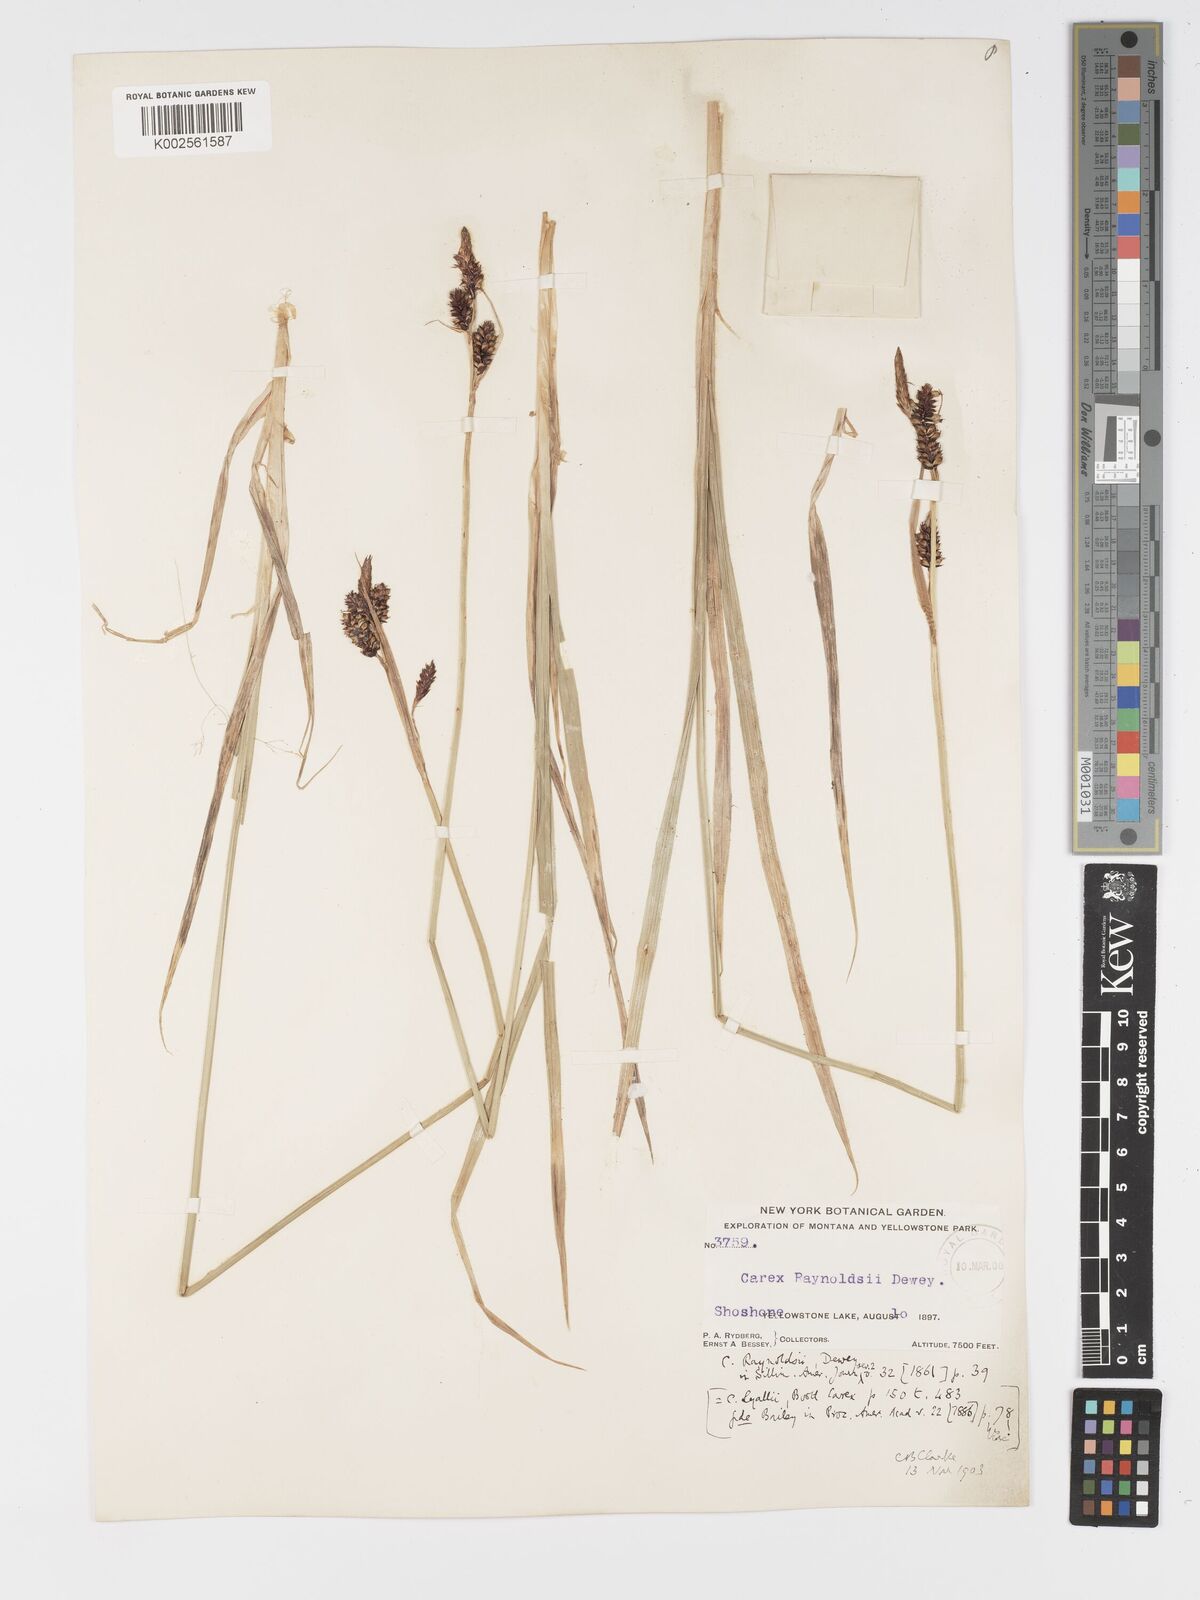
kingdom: Plantae
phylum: Tracheophyta
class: Liliopsida
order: Poales
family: Cyperaceae
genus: Carex
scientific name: Carex raynoldsii
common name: Raynolds' sedge
